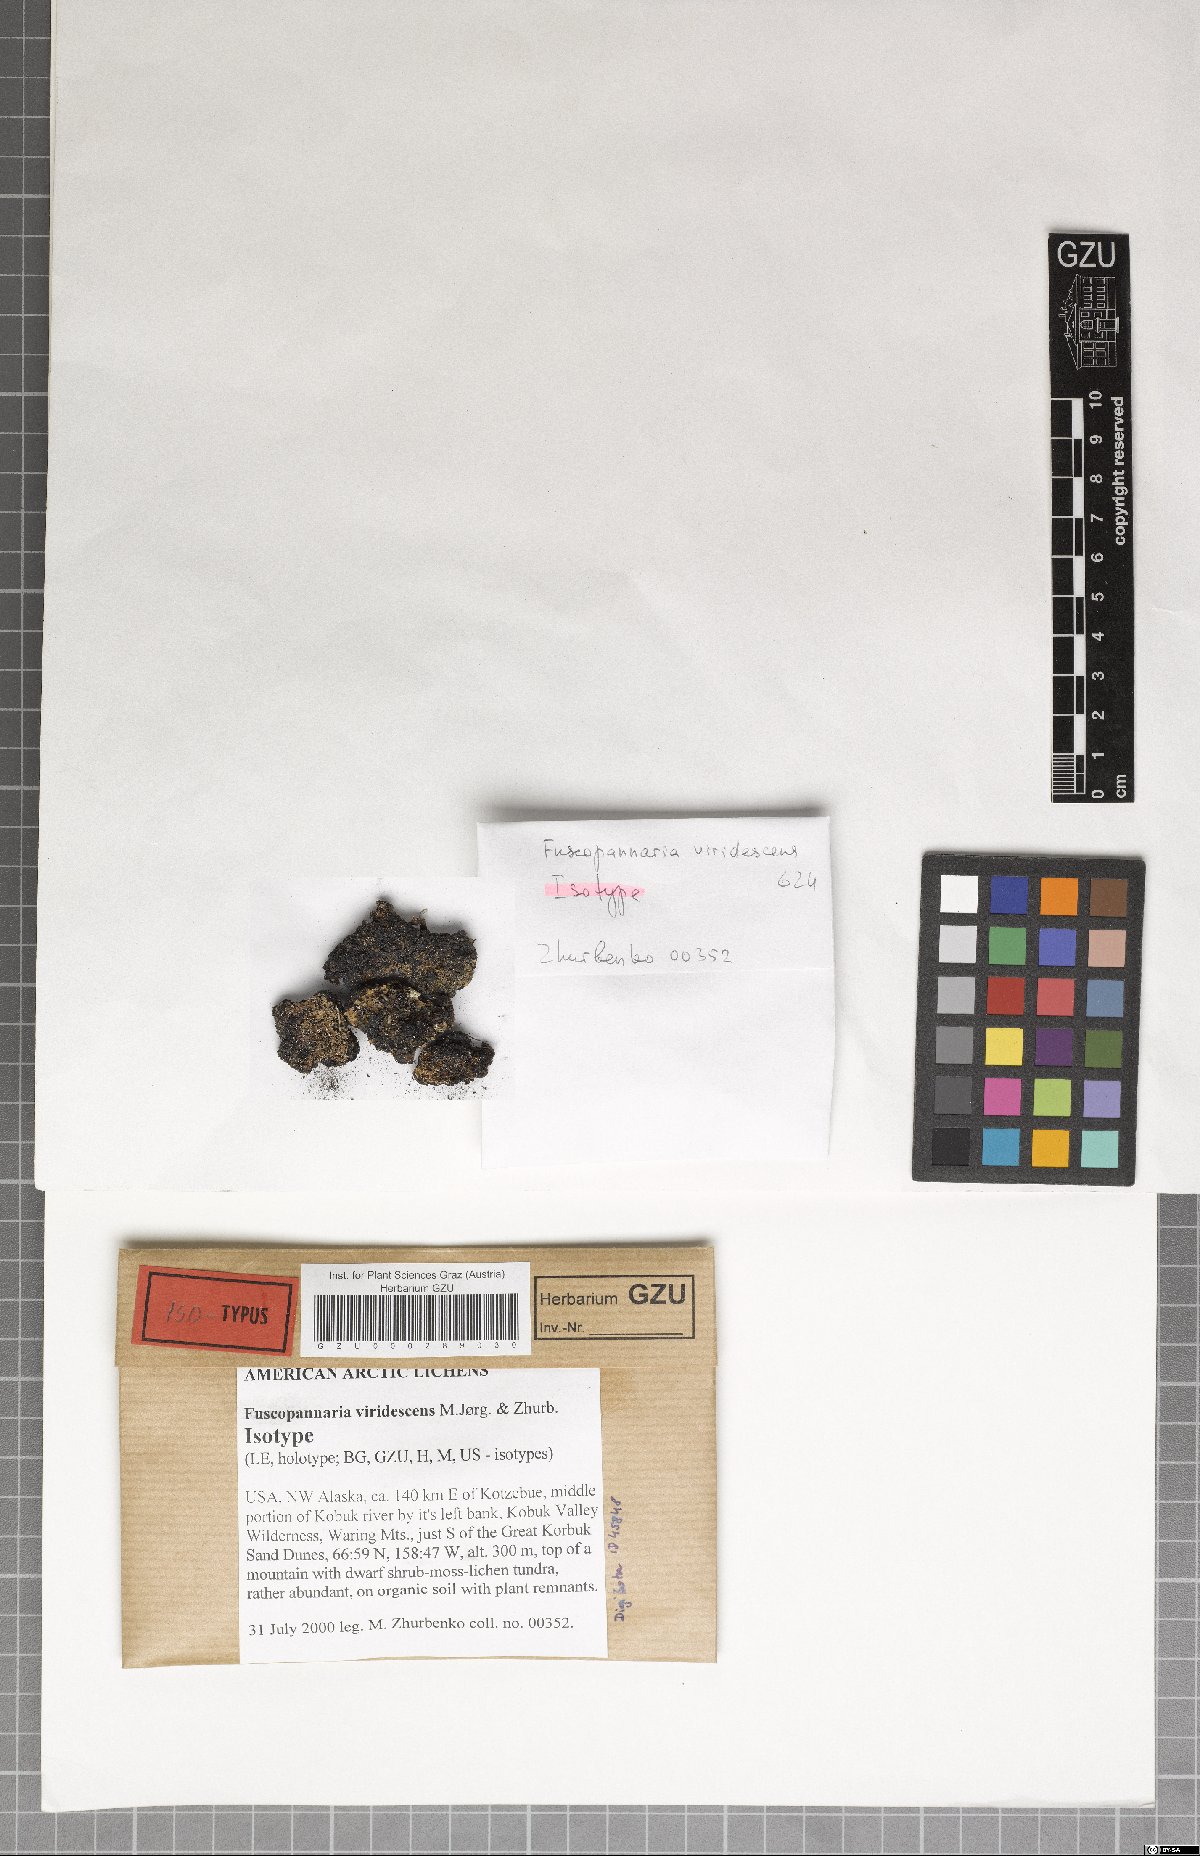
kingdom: Fungi
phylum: Ascomycota
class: Lecanoromycetes
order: Peltigerales
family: Pannariaceae
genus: Fuscopannaria
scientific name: Fuscopannaria viridescens
